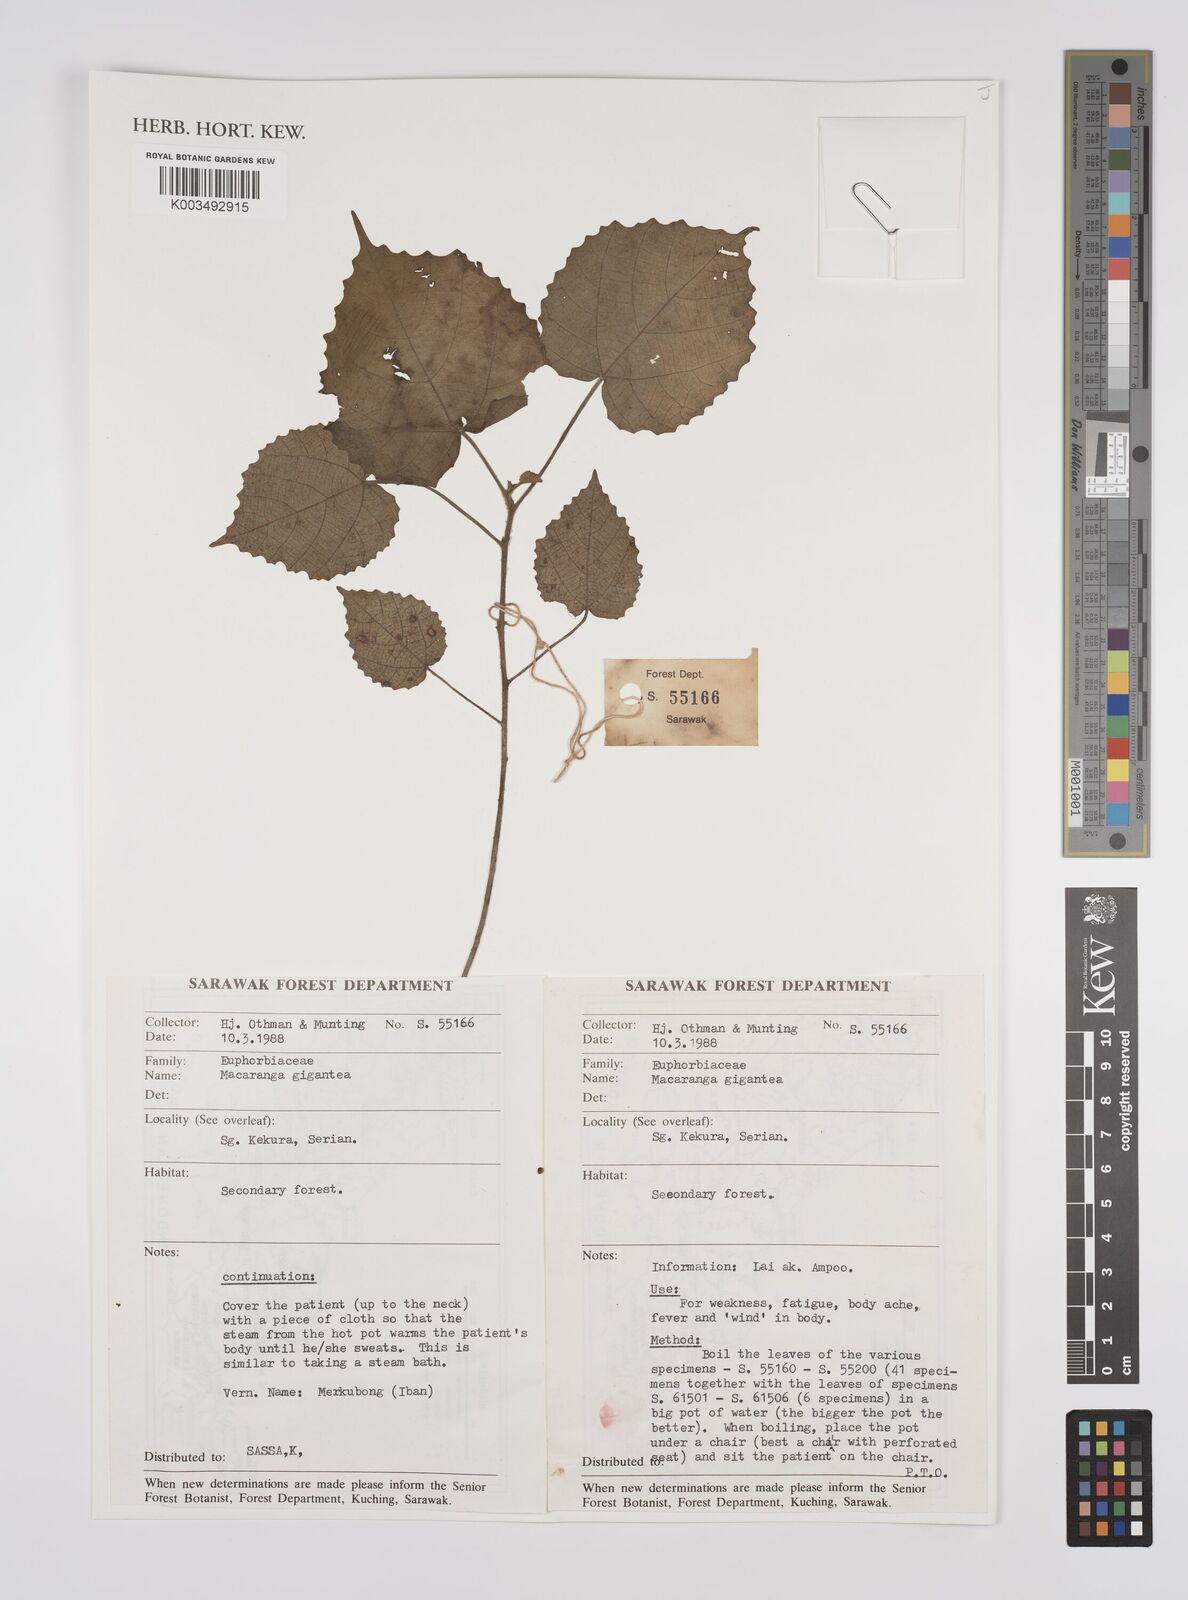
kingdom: Plantae
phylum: Tracheophyta
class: Magnoliopsida
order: Malpighiales
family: Euphorbiaceae
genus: Macaranga
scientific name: Macaranga gigantea
